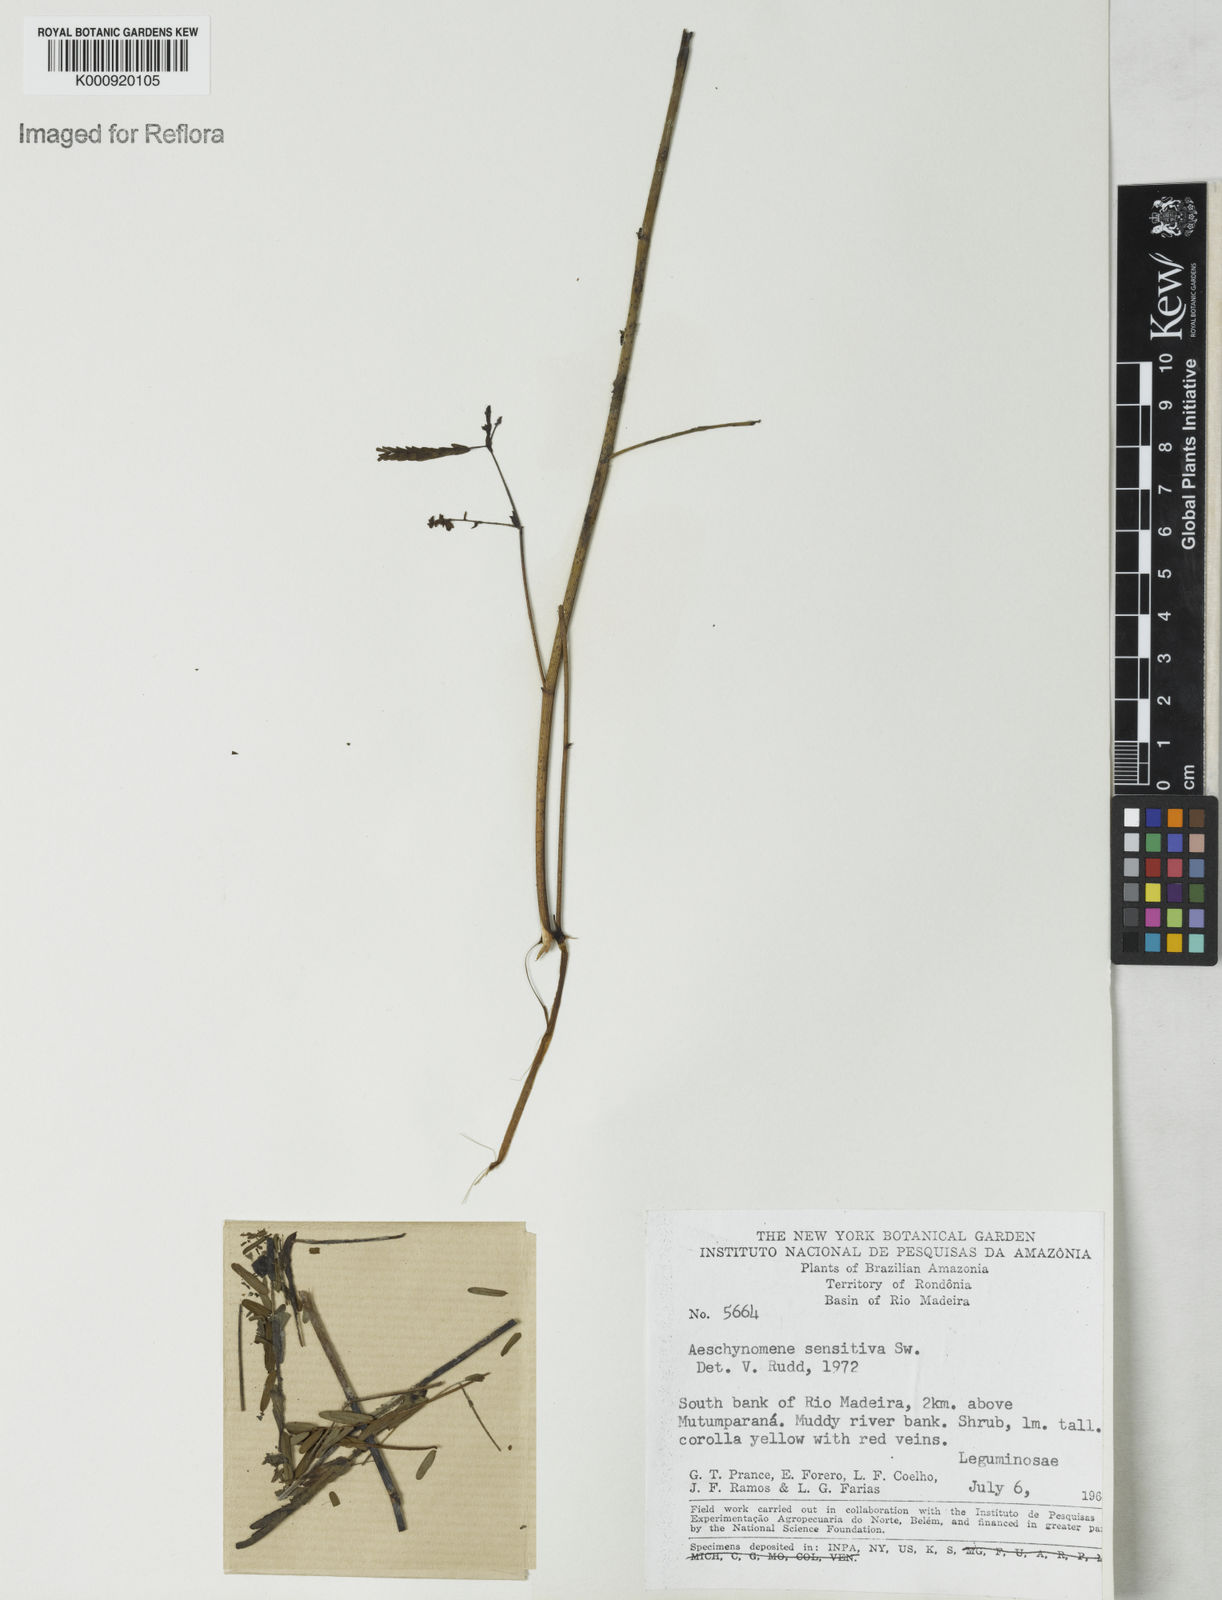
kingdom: Plantae
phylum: Tracheophyta
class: Magnoliopsida
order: Fabales
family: Fabaceae
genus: Aeschynomene
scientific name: Aeschynomene sensitiva
